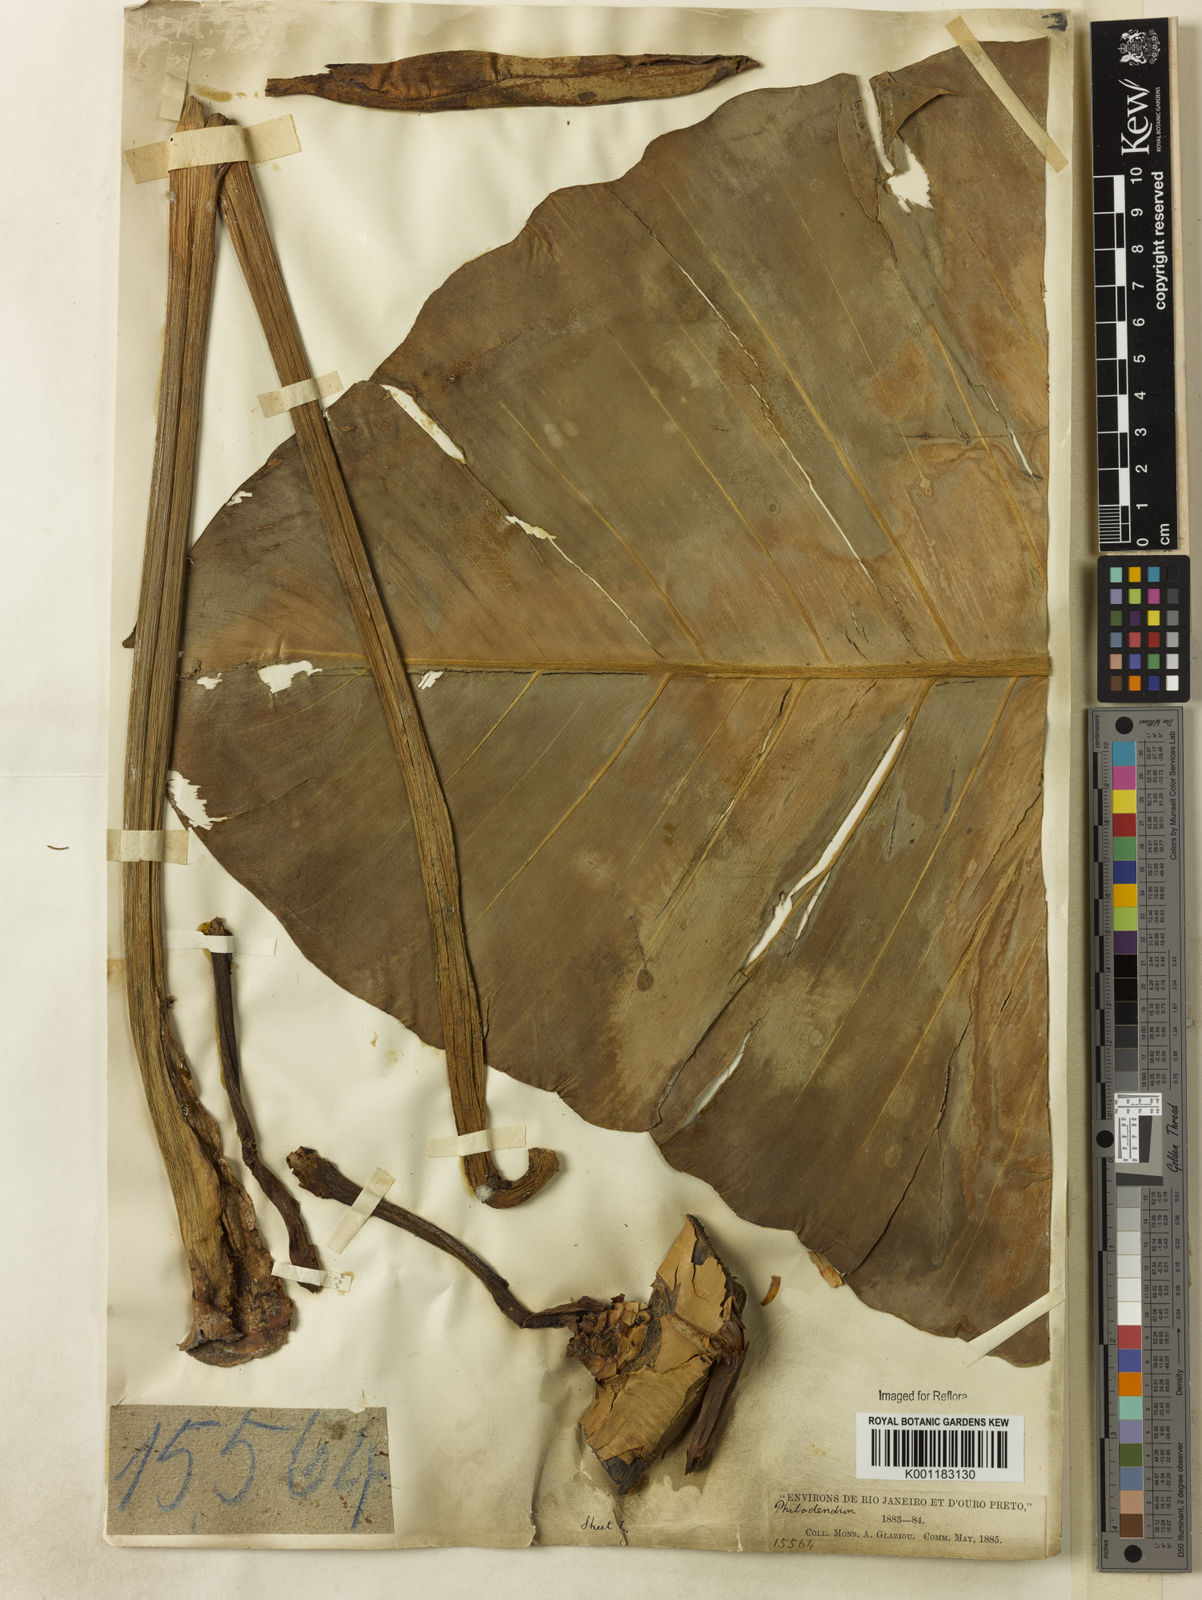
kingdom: Plantae
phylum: Tracheophyta
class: Liliopsida
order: Alismatales
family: Araceae
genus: Philodendron
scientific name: Philodendron cordatum
